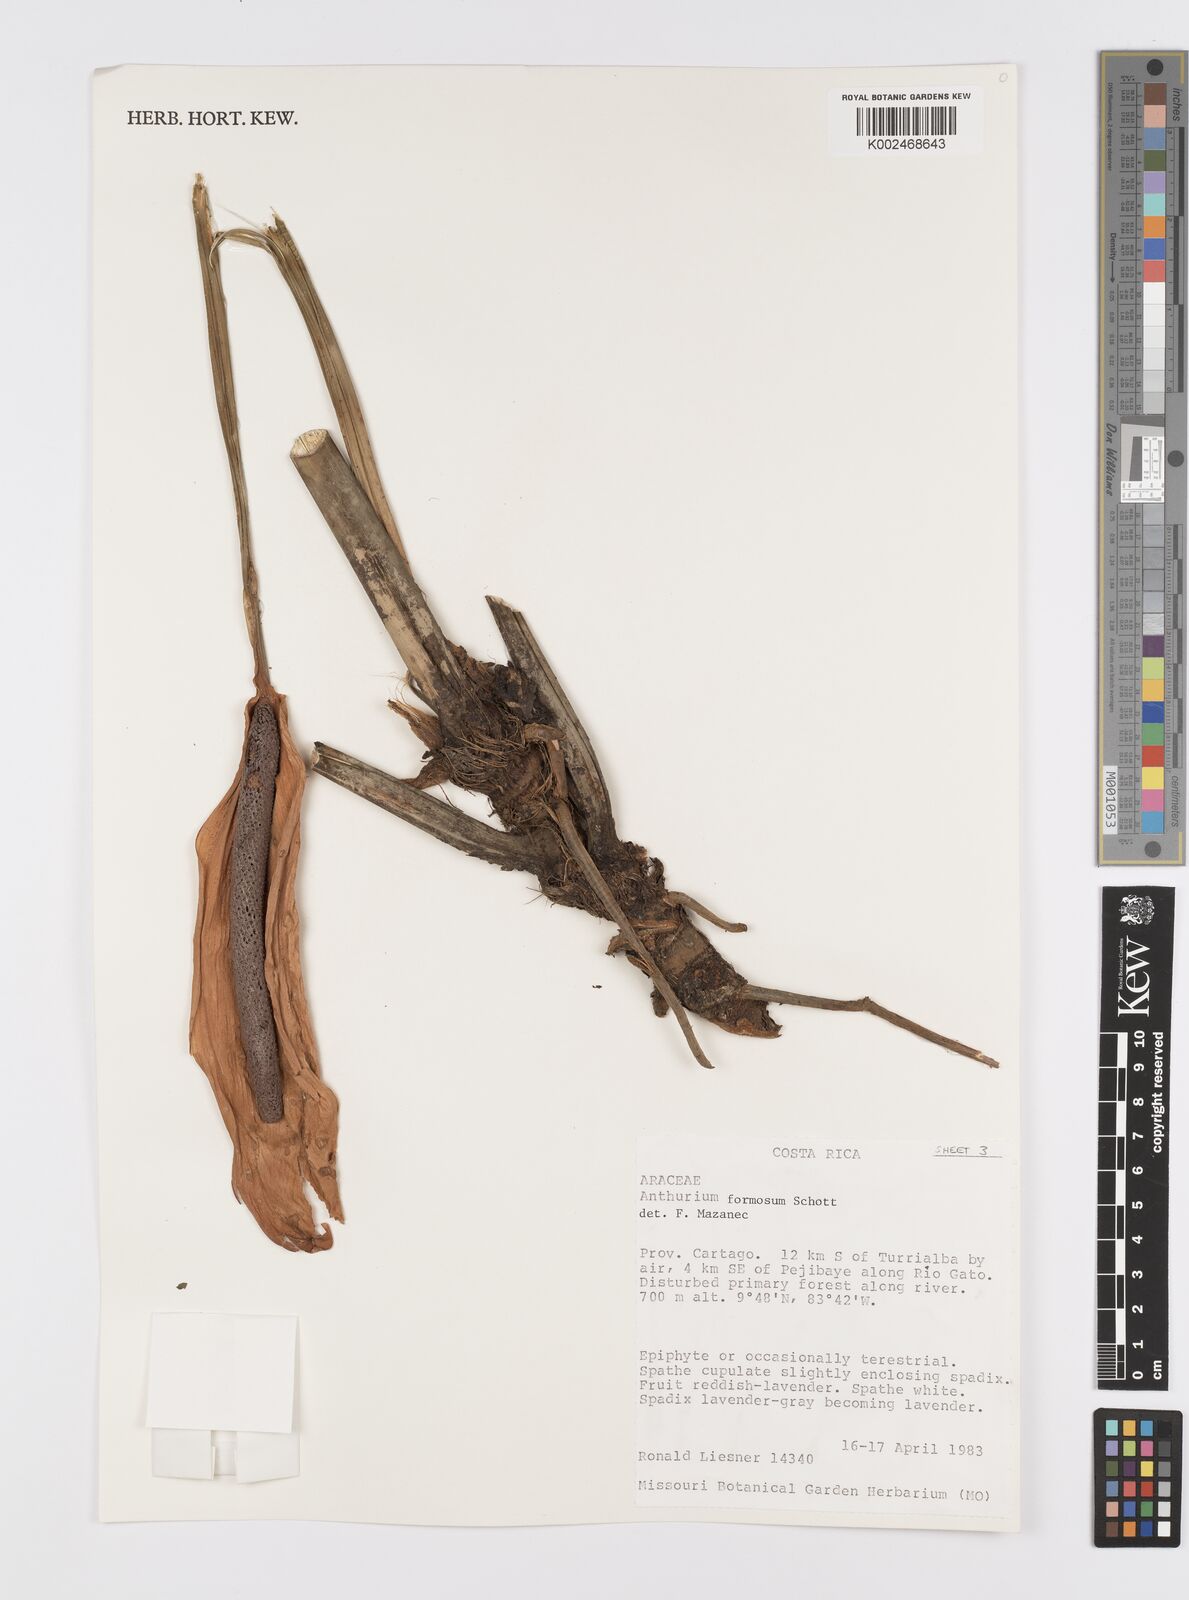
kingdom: Plantae
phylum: Tracheophyta
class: Liliopsida
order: Alismatales
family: Araceae
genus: Anthurium
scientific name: Anthurium formosum
